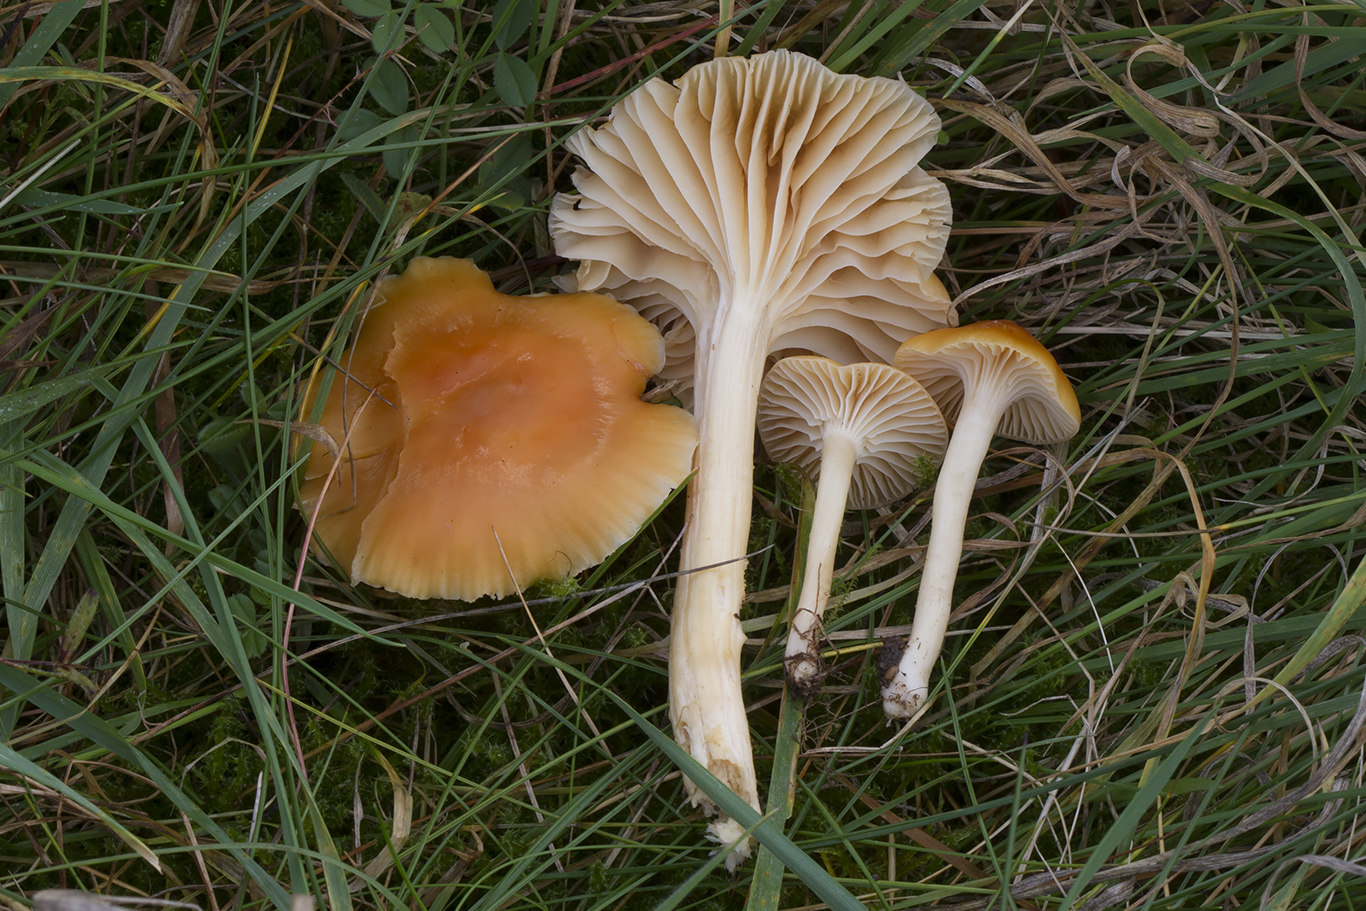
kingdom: Fungi
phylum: Basidiomycota
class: Agaricomycetes
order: Agaricales
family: Hygrophoraceae
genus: Cuphophyllus
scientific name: Cuphophyllus pratensis
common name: eng-vokshat
